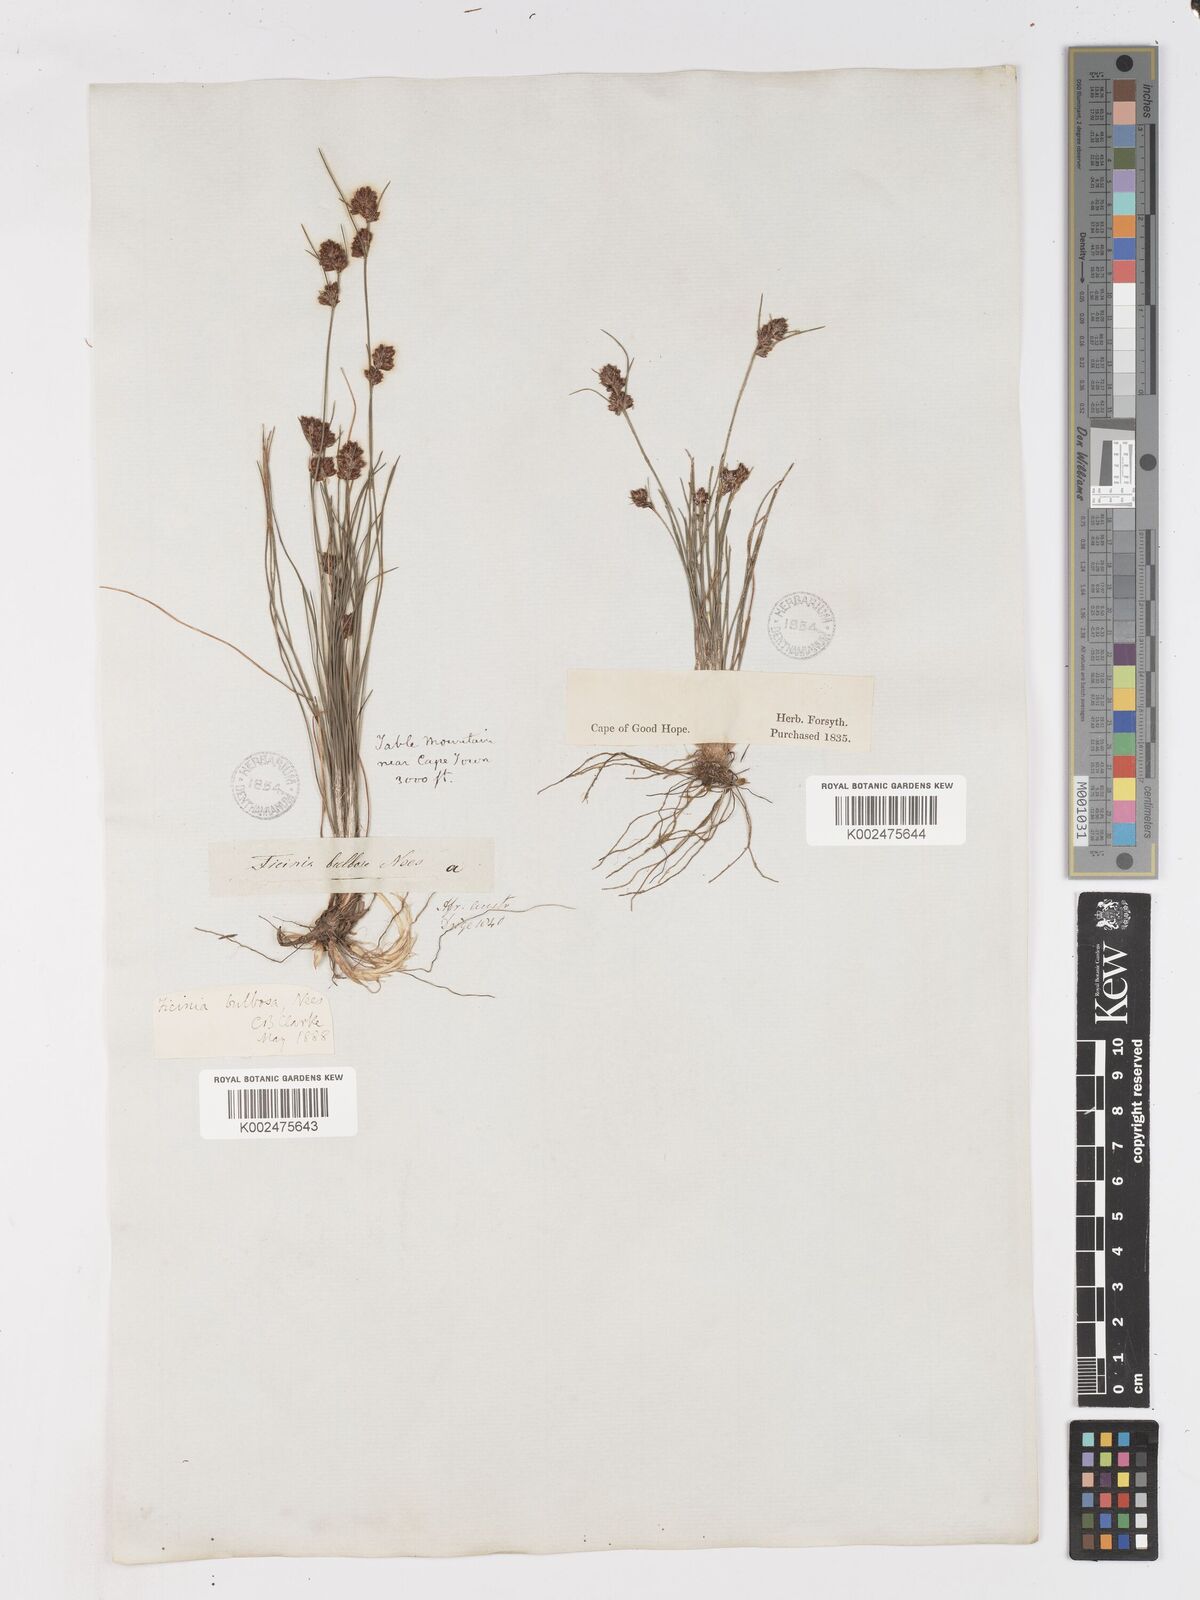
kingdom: Plantae
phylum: Tracheophyta
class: Liliopsida
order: Poales
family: Cyperaceae
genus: Ficinia
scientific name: Ficinia bulbosa
